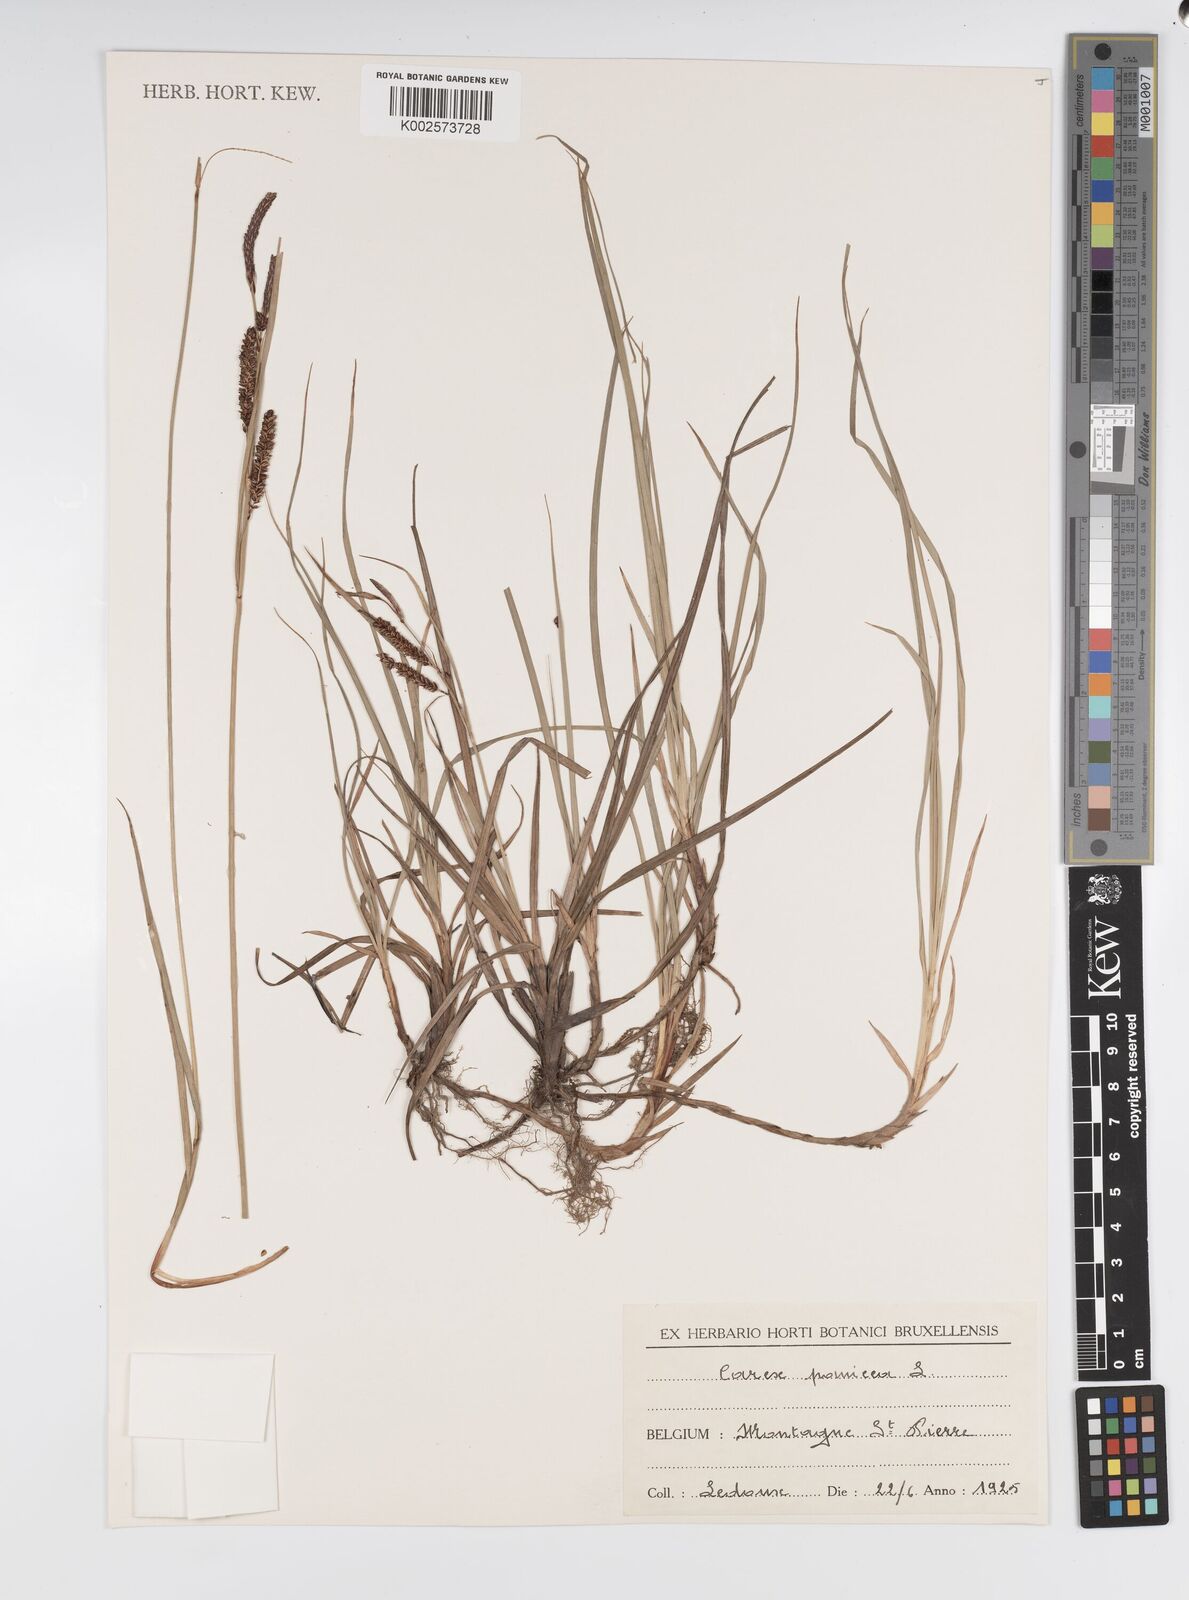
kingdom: Plantae
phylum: Tracheophyta
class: Liliopsida
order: Poales
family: Cyperaceae
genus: Carex
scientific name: Carex panicea
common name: Carnation sedge
